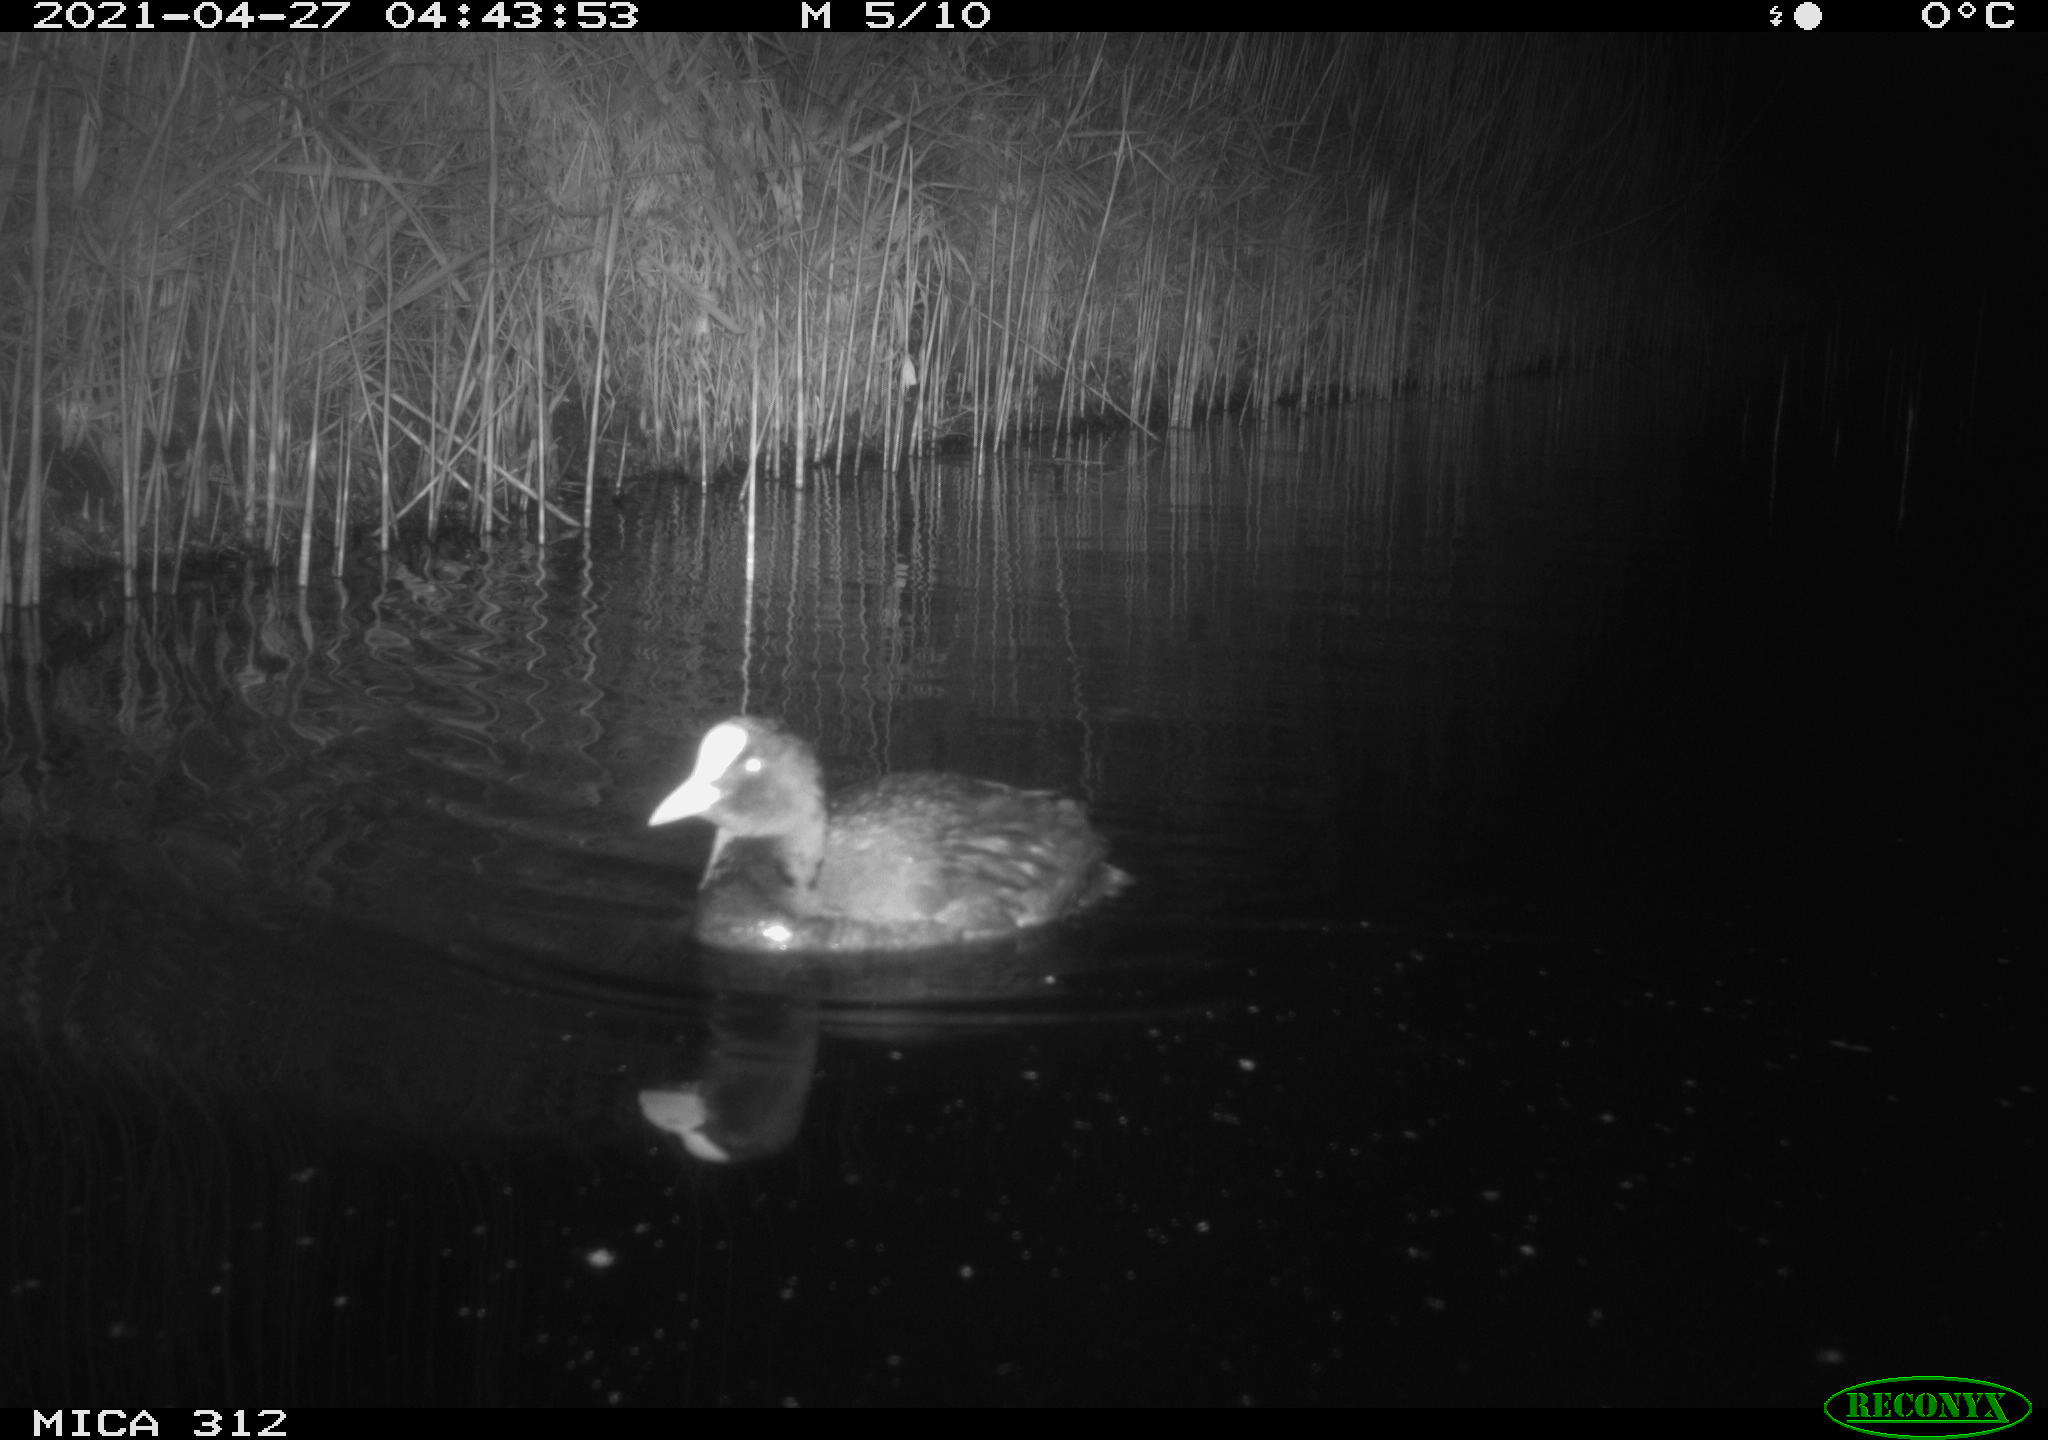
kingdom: Animalia
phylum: Chordata
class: Aves
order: Gruiformes
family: Rallidae
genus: Fulica
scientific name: Fulica atra
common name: Eurasian coot
